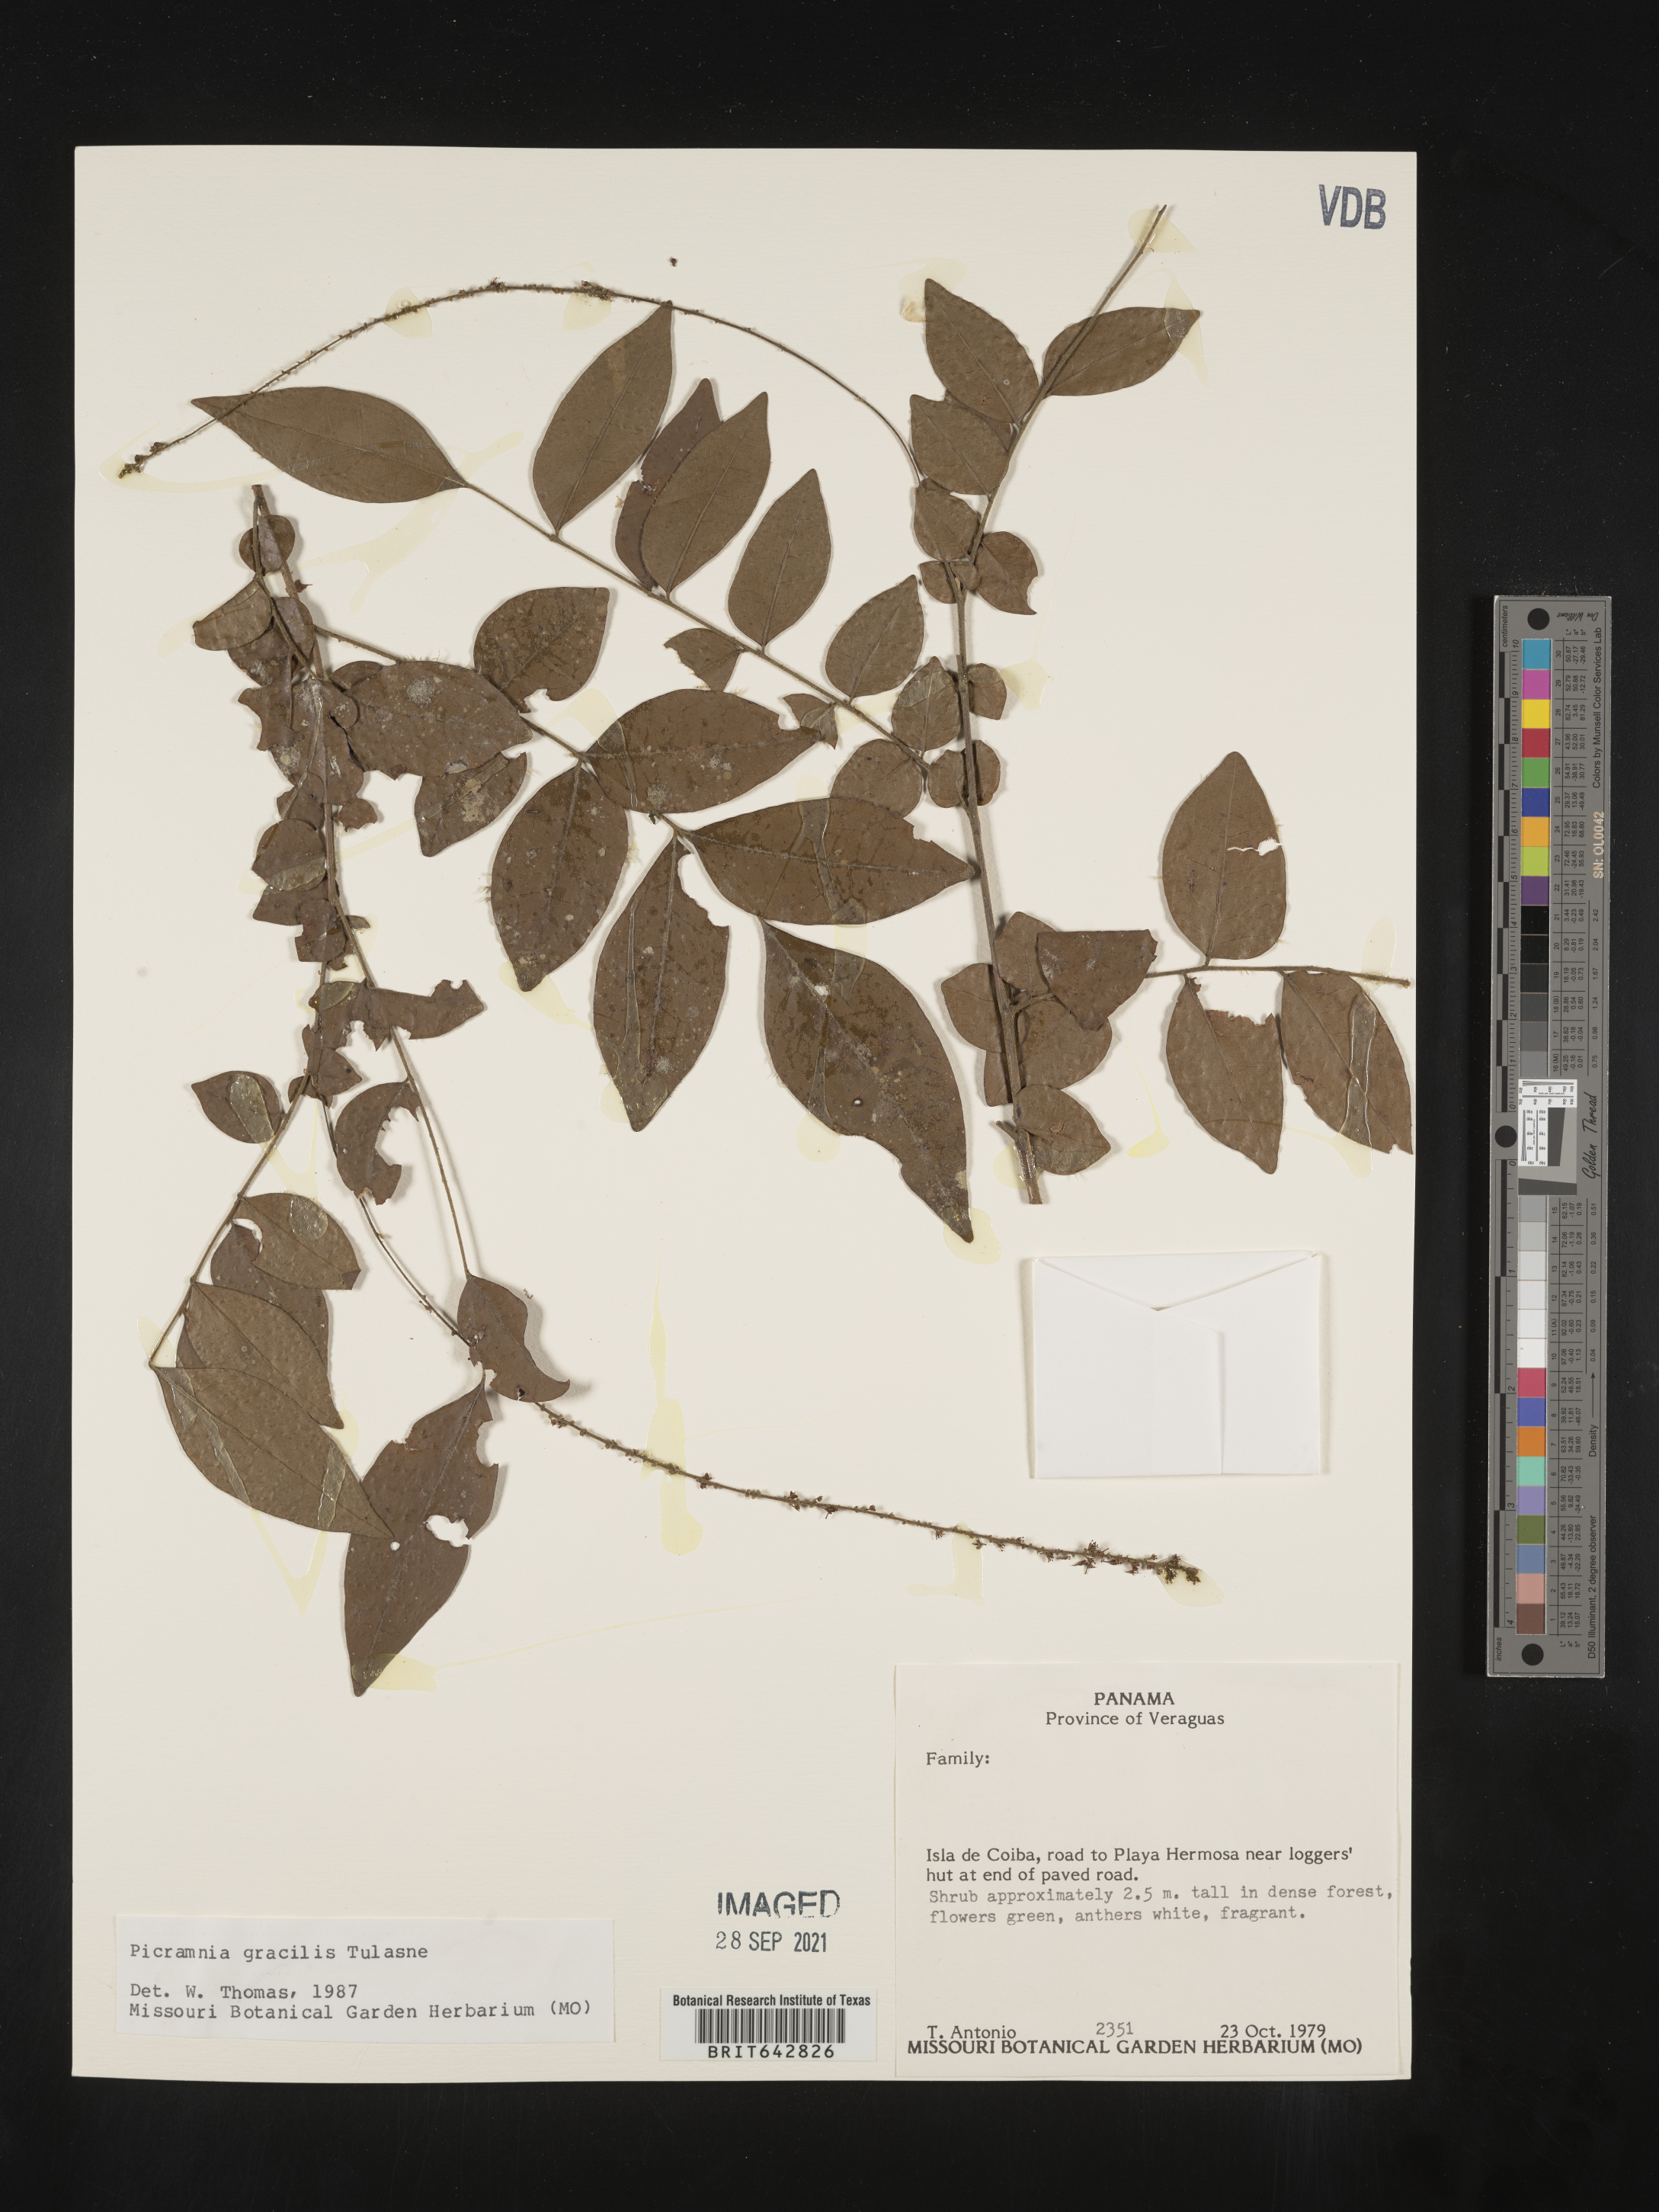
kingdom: Plantae
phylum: Tracheophyta
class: Magnoliopsida
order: Picramniales
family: Picramniaceae
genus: Picramnia
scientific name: Picramnia
